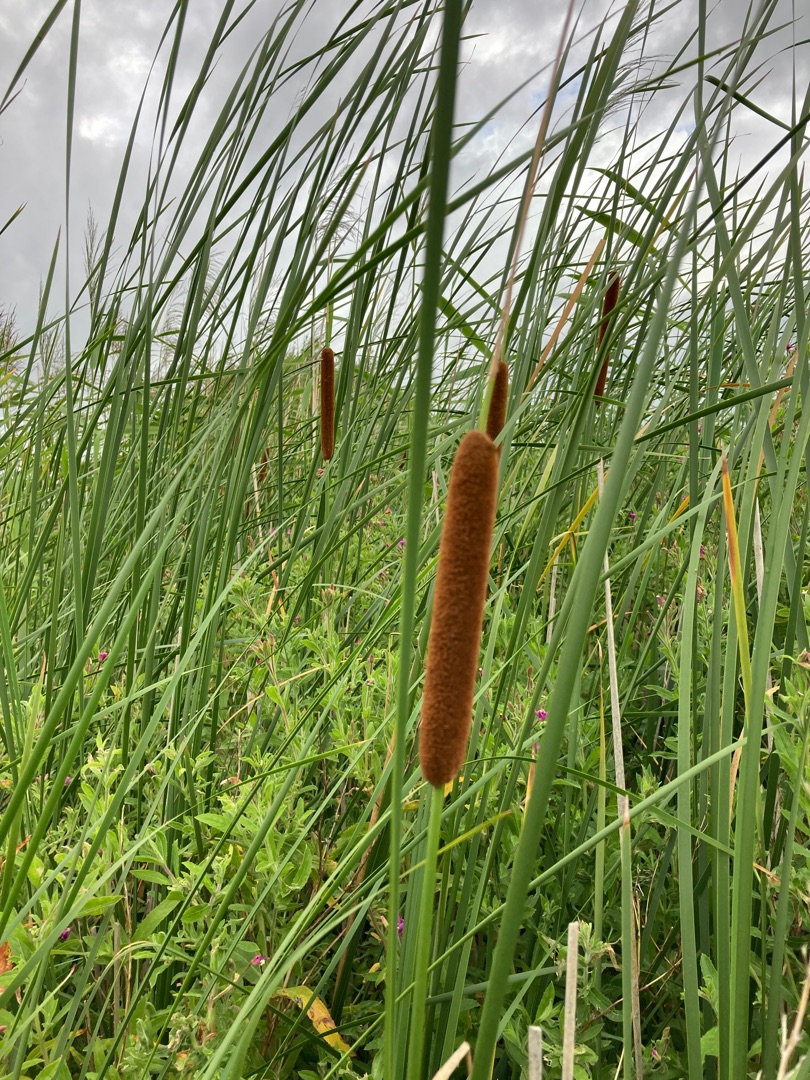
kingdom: Plantae
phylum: Tracheophyta
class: Liliopsida
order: Poales
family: Typhaceae
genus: Typha
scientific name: Typha angustifolia
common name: Smalbladet dunhammer
